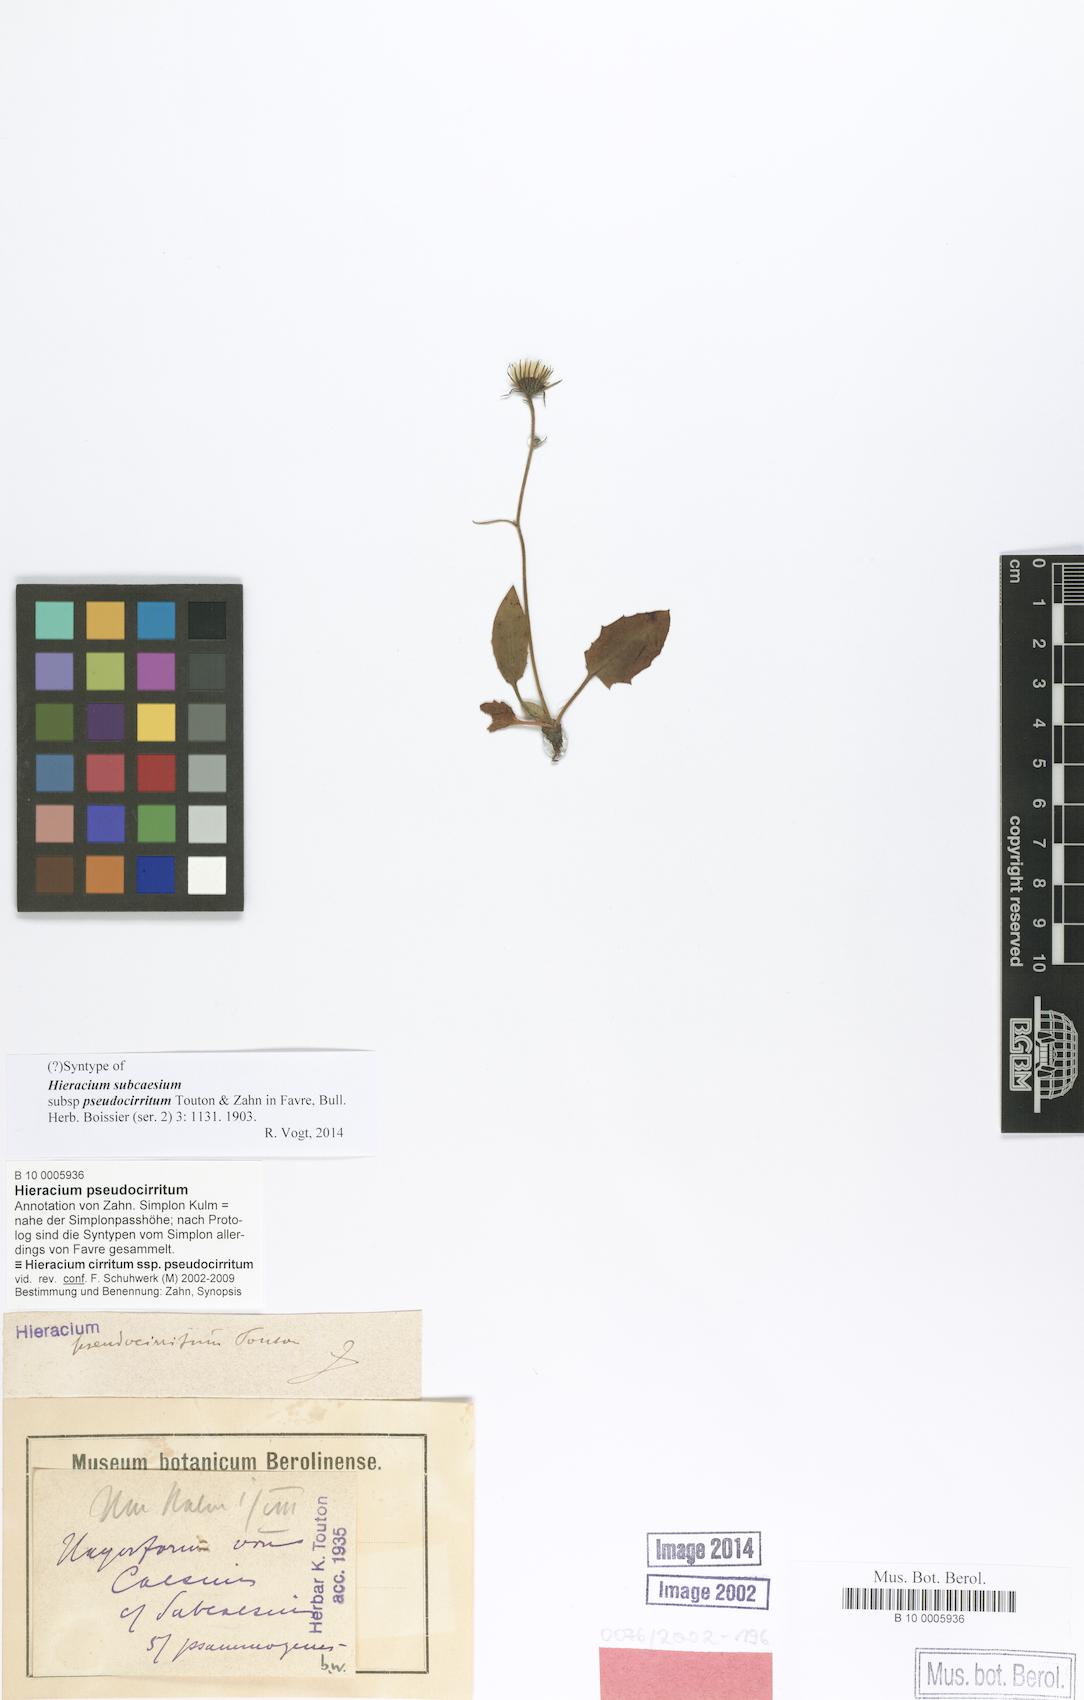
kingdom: Plantae
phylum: Tracheophyta
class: Magnoliopsida
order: Asterales
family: Asteraceae
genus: Hieracium
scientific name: Hieracium cirritum
